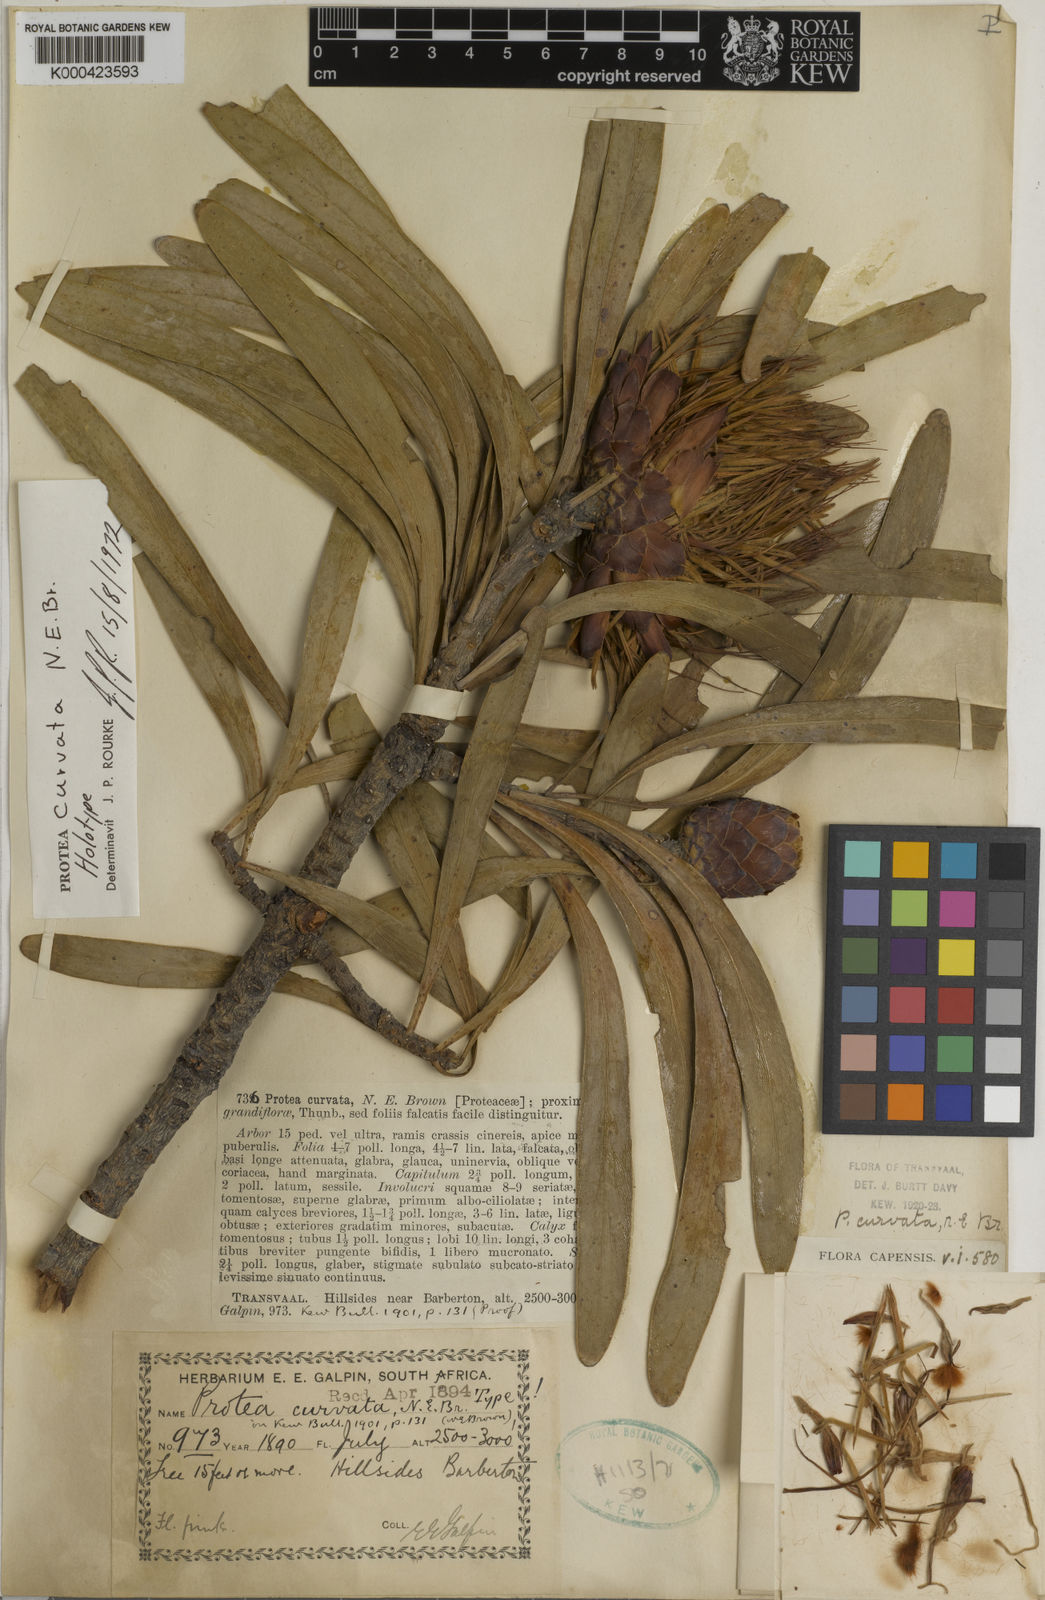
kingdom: Plantae
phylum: Tracheophyta
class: Magnoliopsida
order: Proteales
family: Proteaceae
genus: Protea
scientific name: Protea curvata
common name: Barberton lowveld sugarbush
